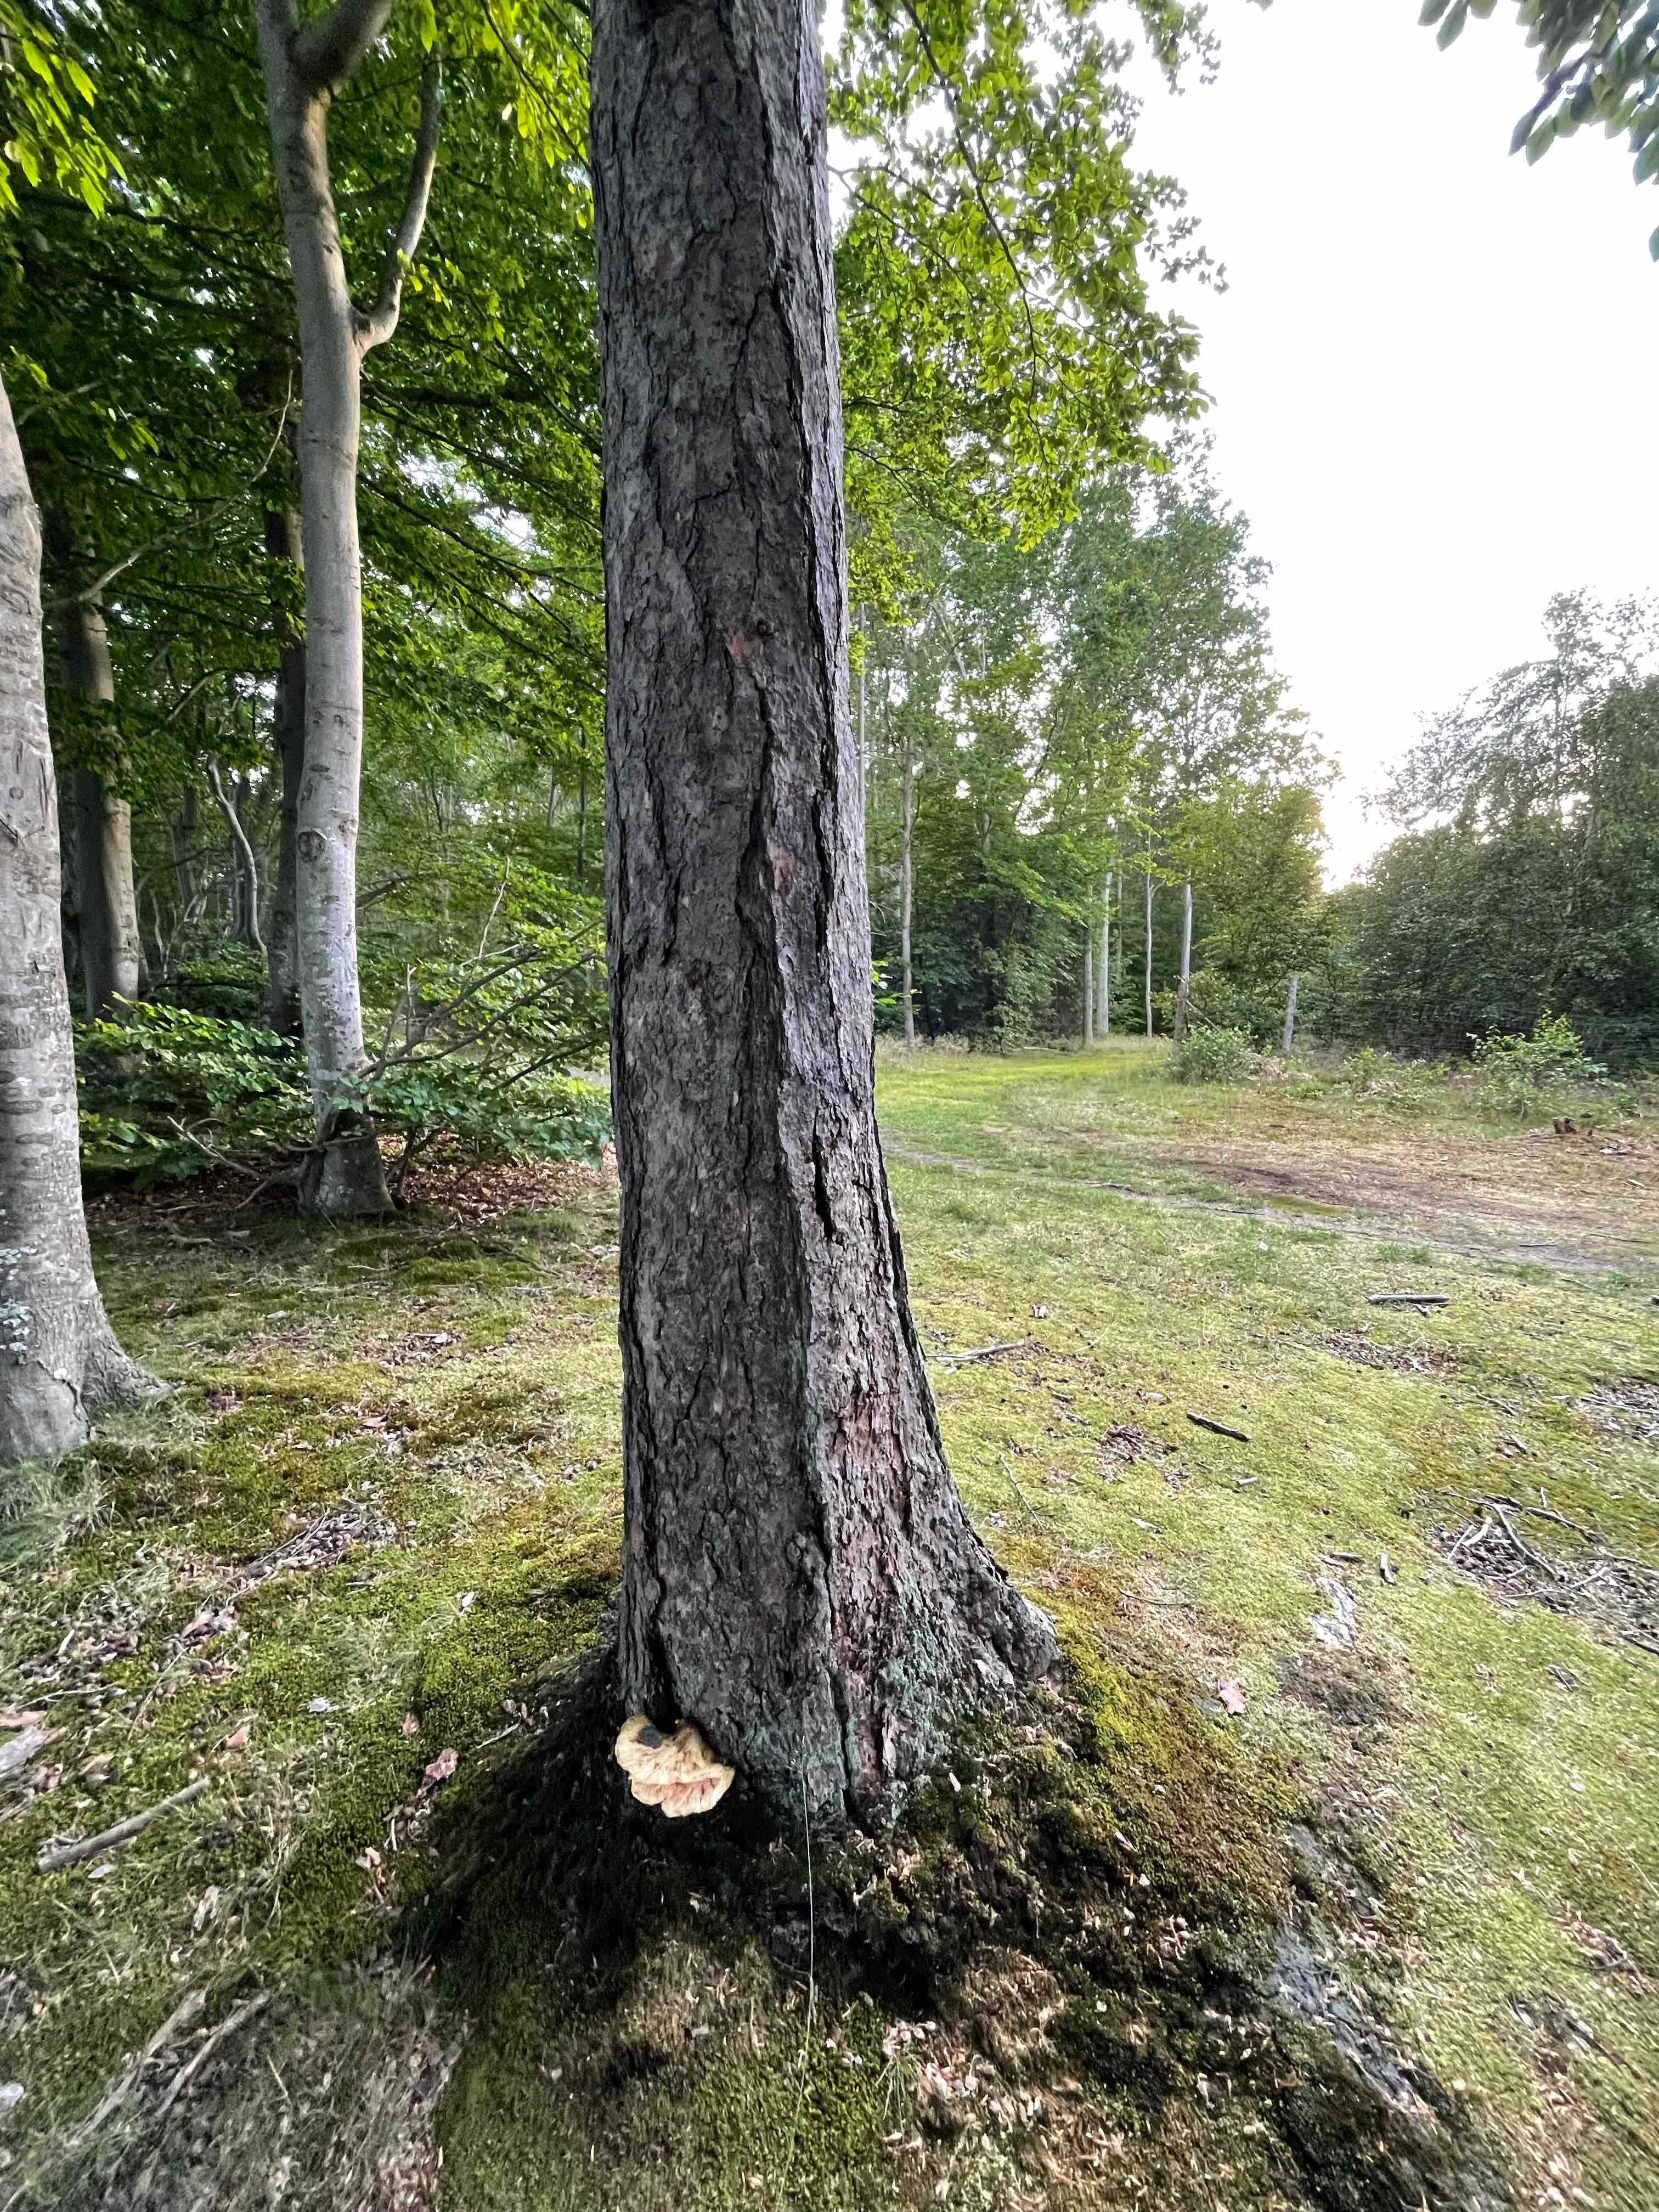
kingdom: Fungi
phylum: Basidiomycota
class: Agaricomycetes
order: Polyporales
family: Laetiporaceae
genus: Laetiporus
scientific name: Laetiporus sulphureus
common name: svovlporesvamp
